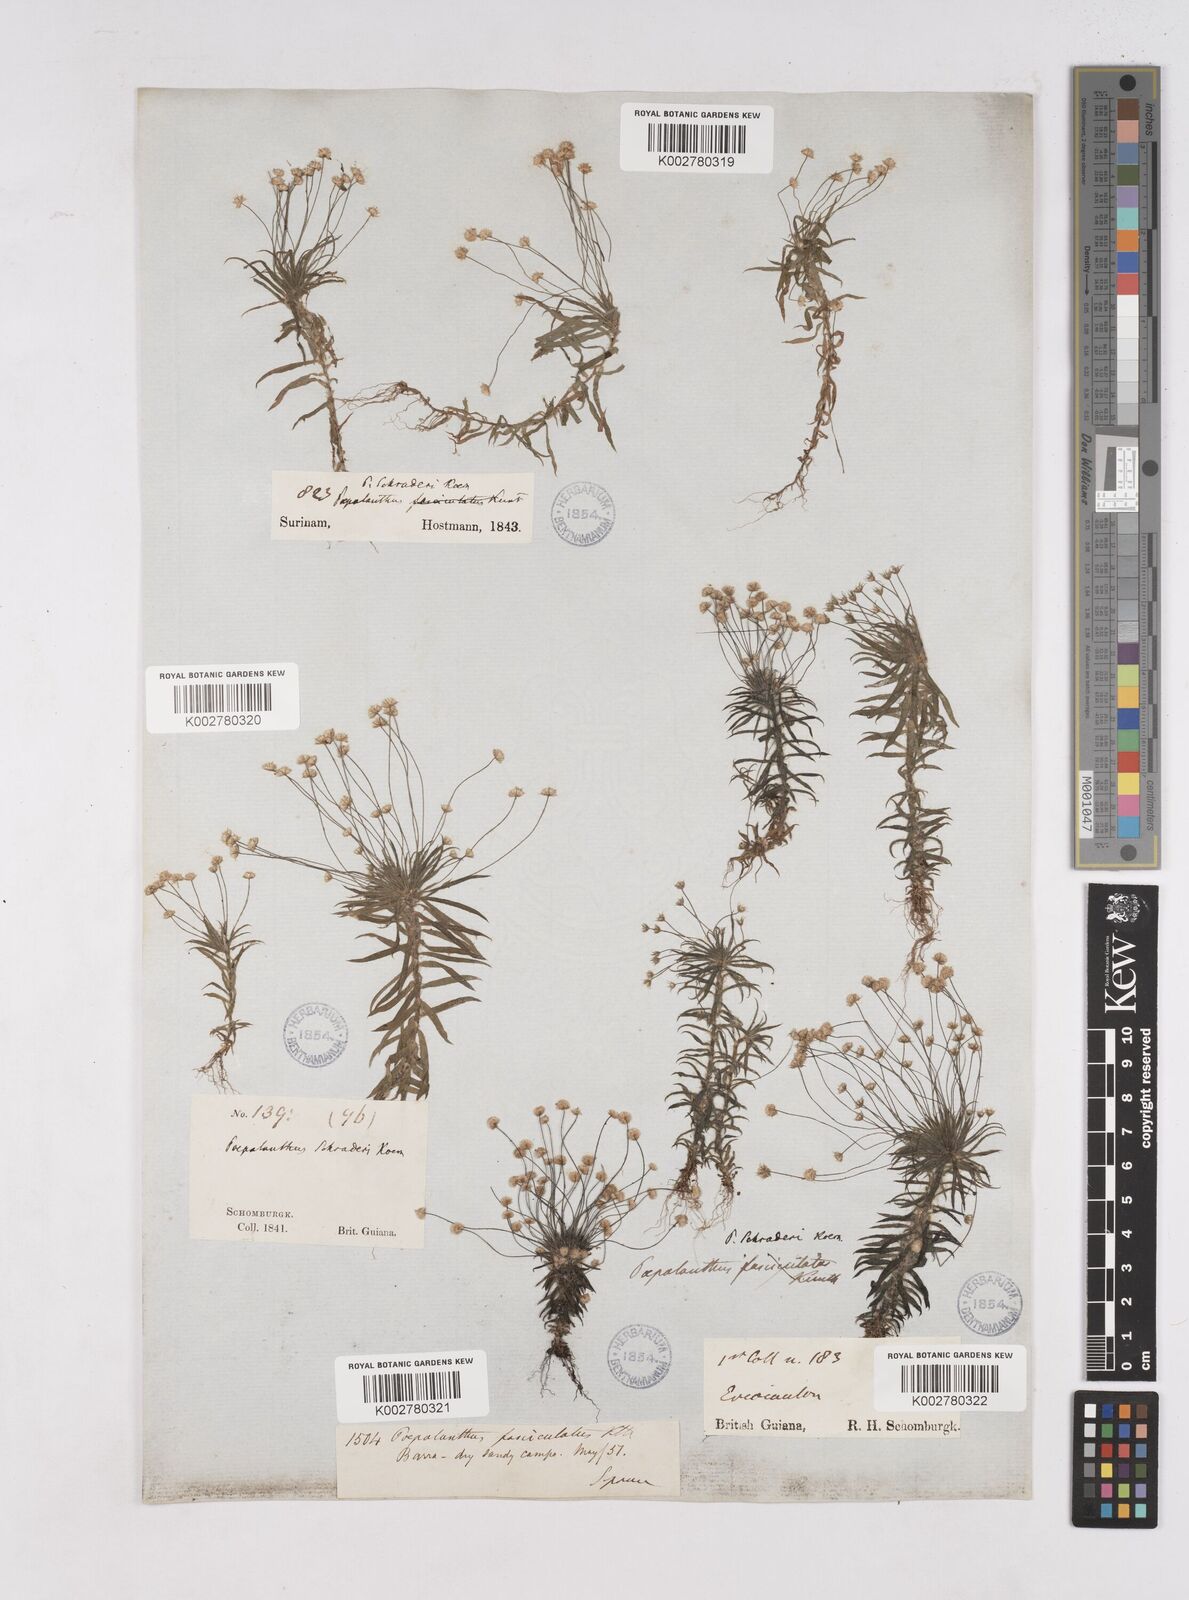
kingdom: Plantae
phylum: Tracheophyta
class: Liliopsida
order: Poales
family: Eriocaulaceae
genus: Paepalanthus
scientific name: Paepalanthus bifidus
